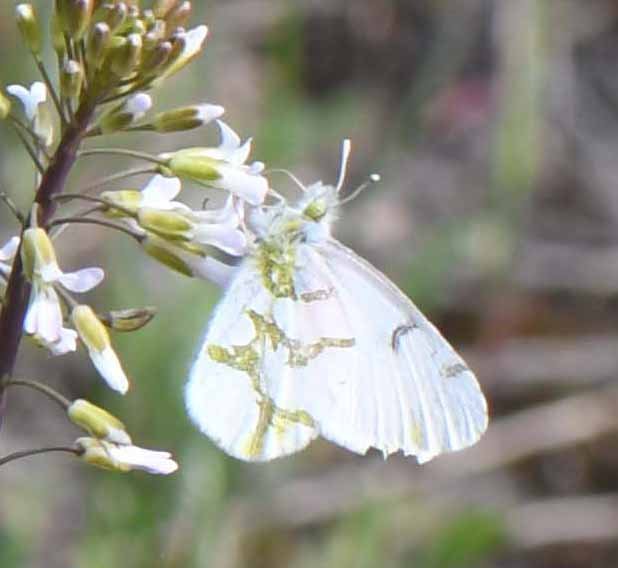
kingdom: Animalia
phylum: Arthropoda
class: Insecta
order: Lepidoptera
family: Pieridae
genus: Euchloe
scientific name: Euchloe olympia
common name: Olympia Marble
